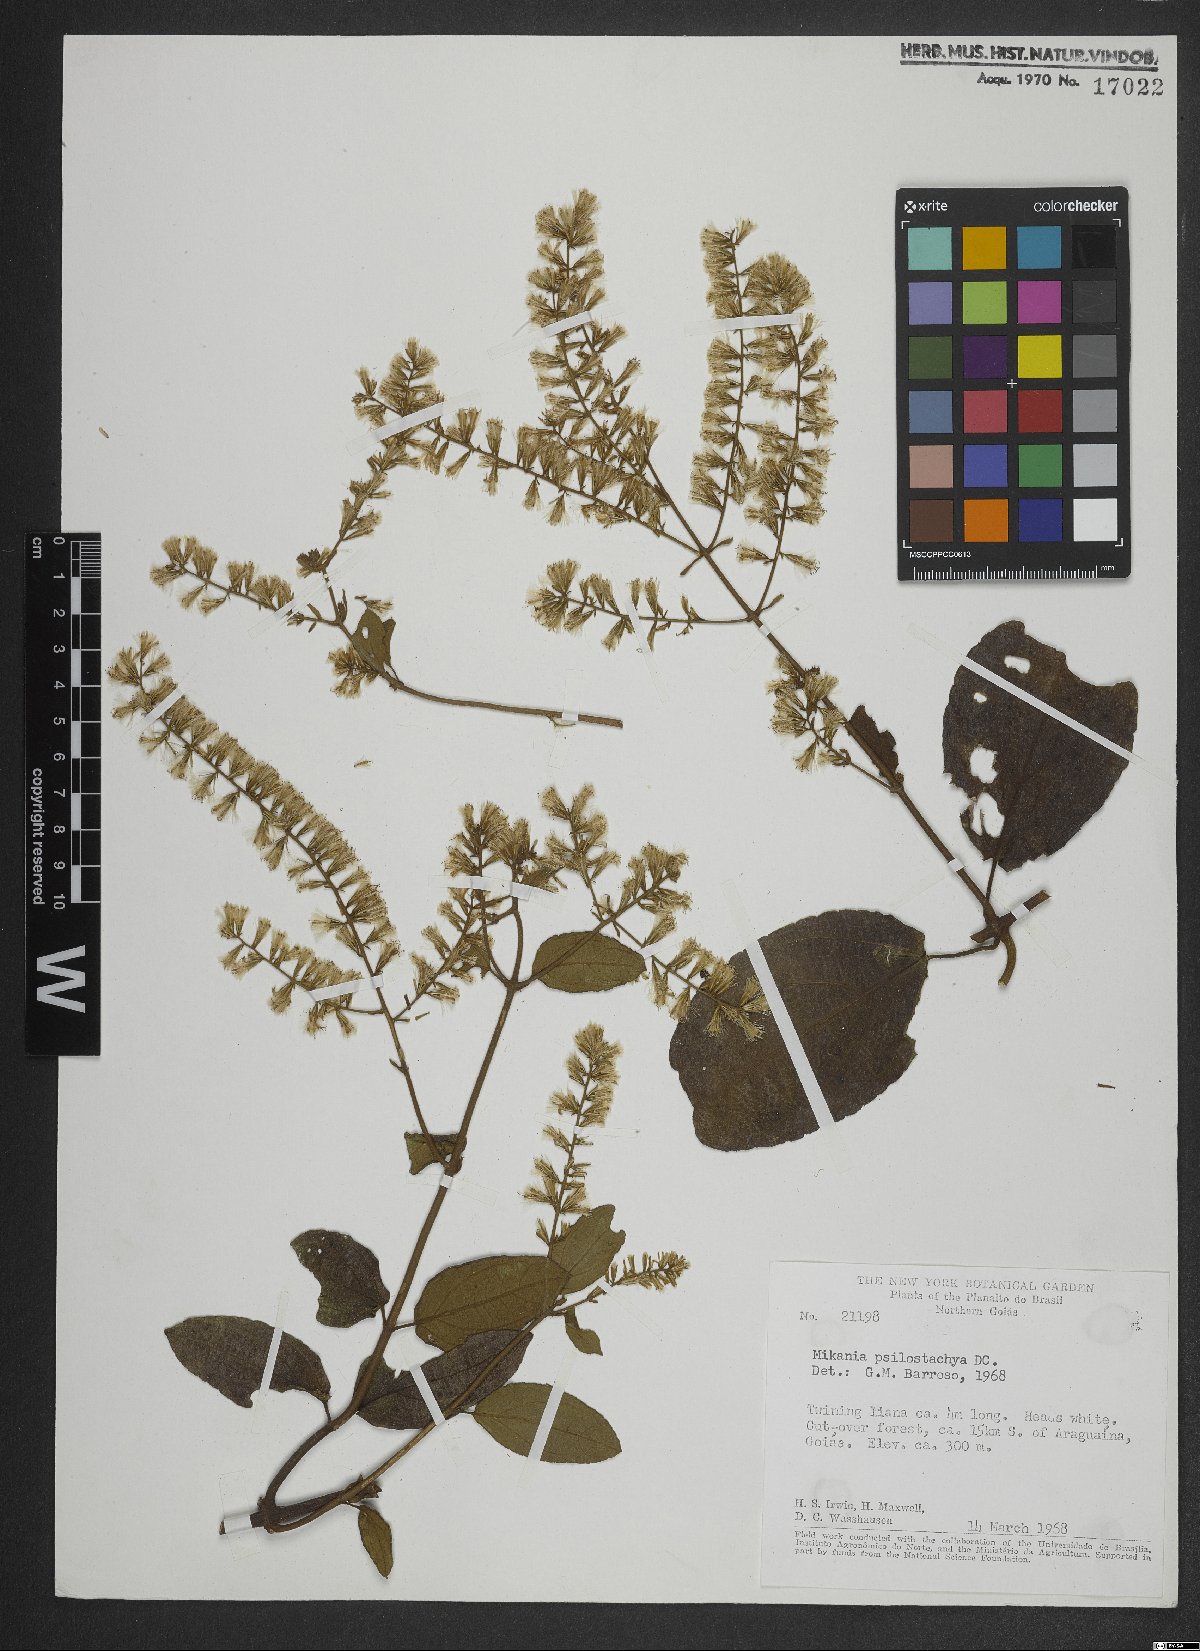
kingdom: Plantae
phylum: Tracheophyta
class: Magnoliopsida
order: Asterales
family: Asteraceae
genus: Mikania
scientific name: Mikania psilostachya
